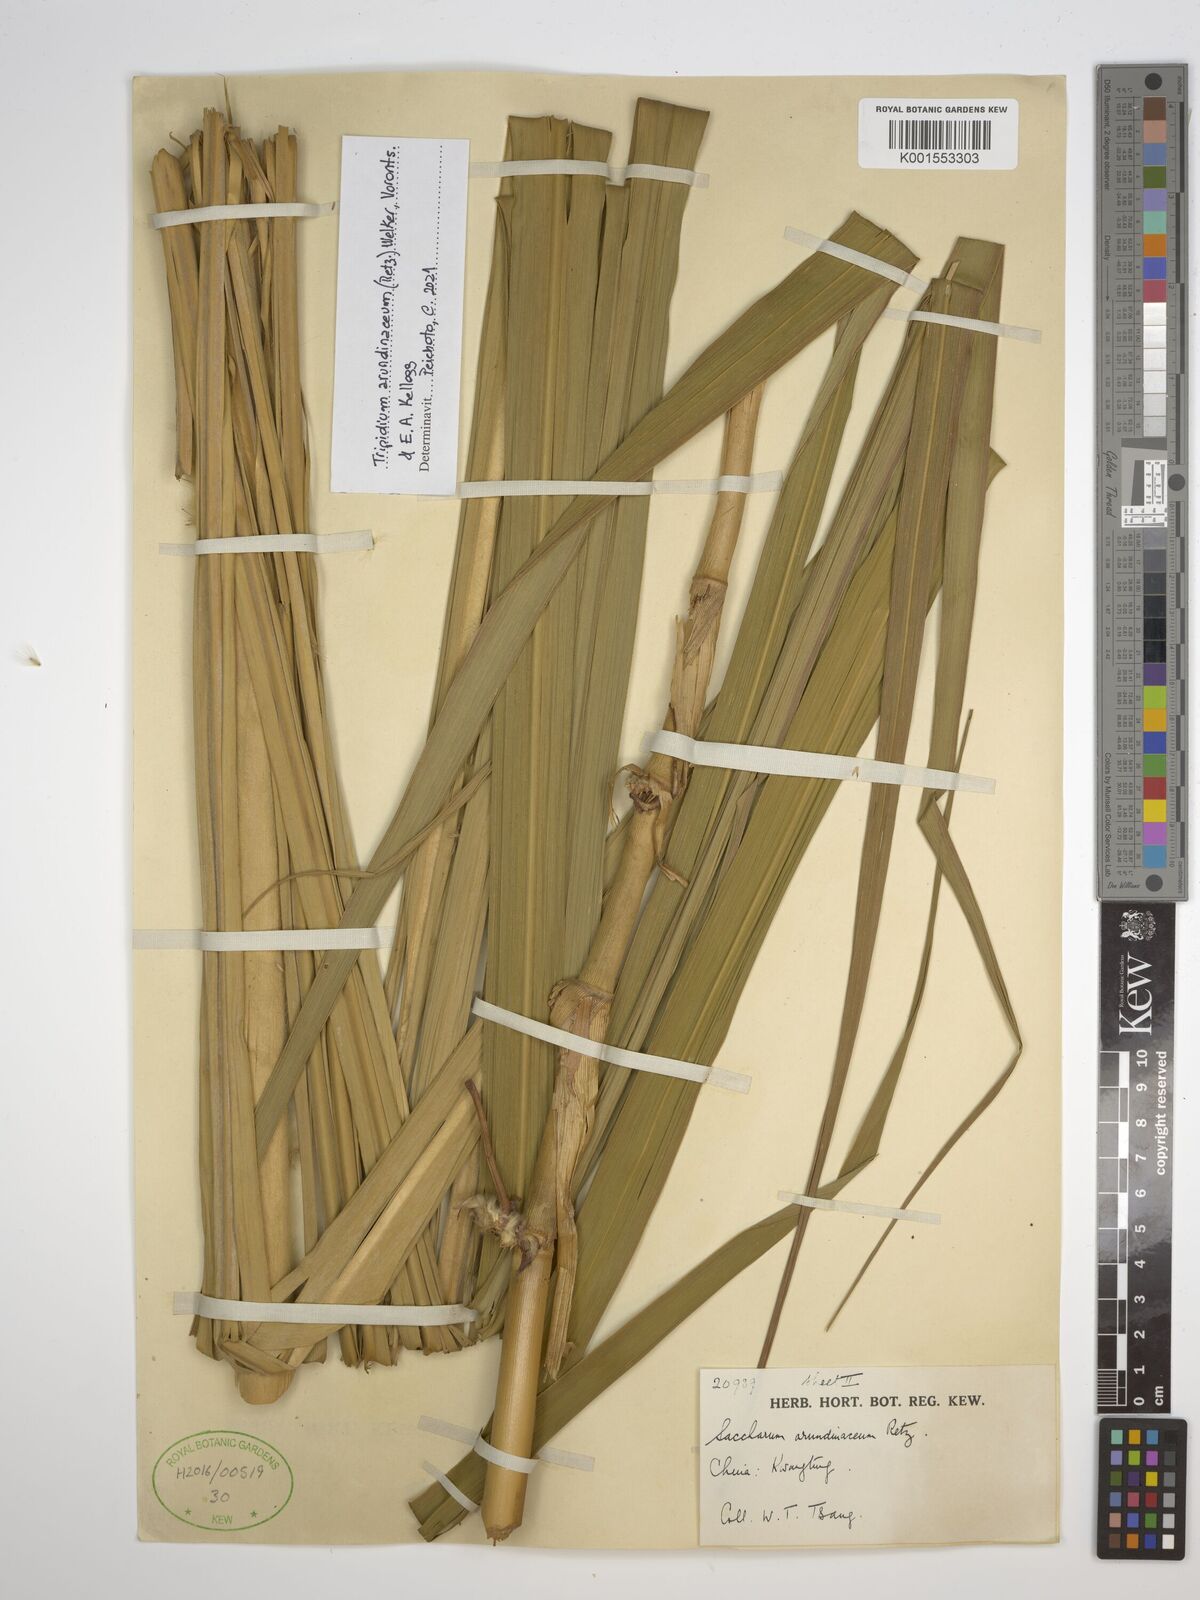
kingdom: Plantae
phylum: Tracheophyta
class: Liliopsida
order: Poales
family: Poaceae
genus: Tripidium
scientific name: Tripidium arundinaceum
